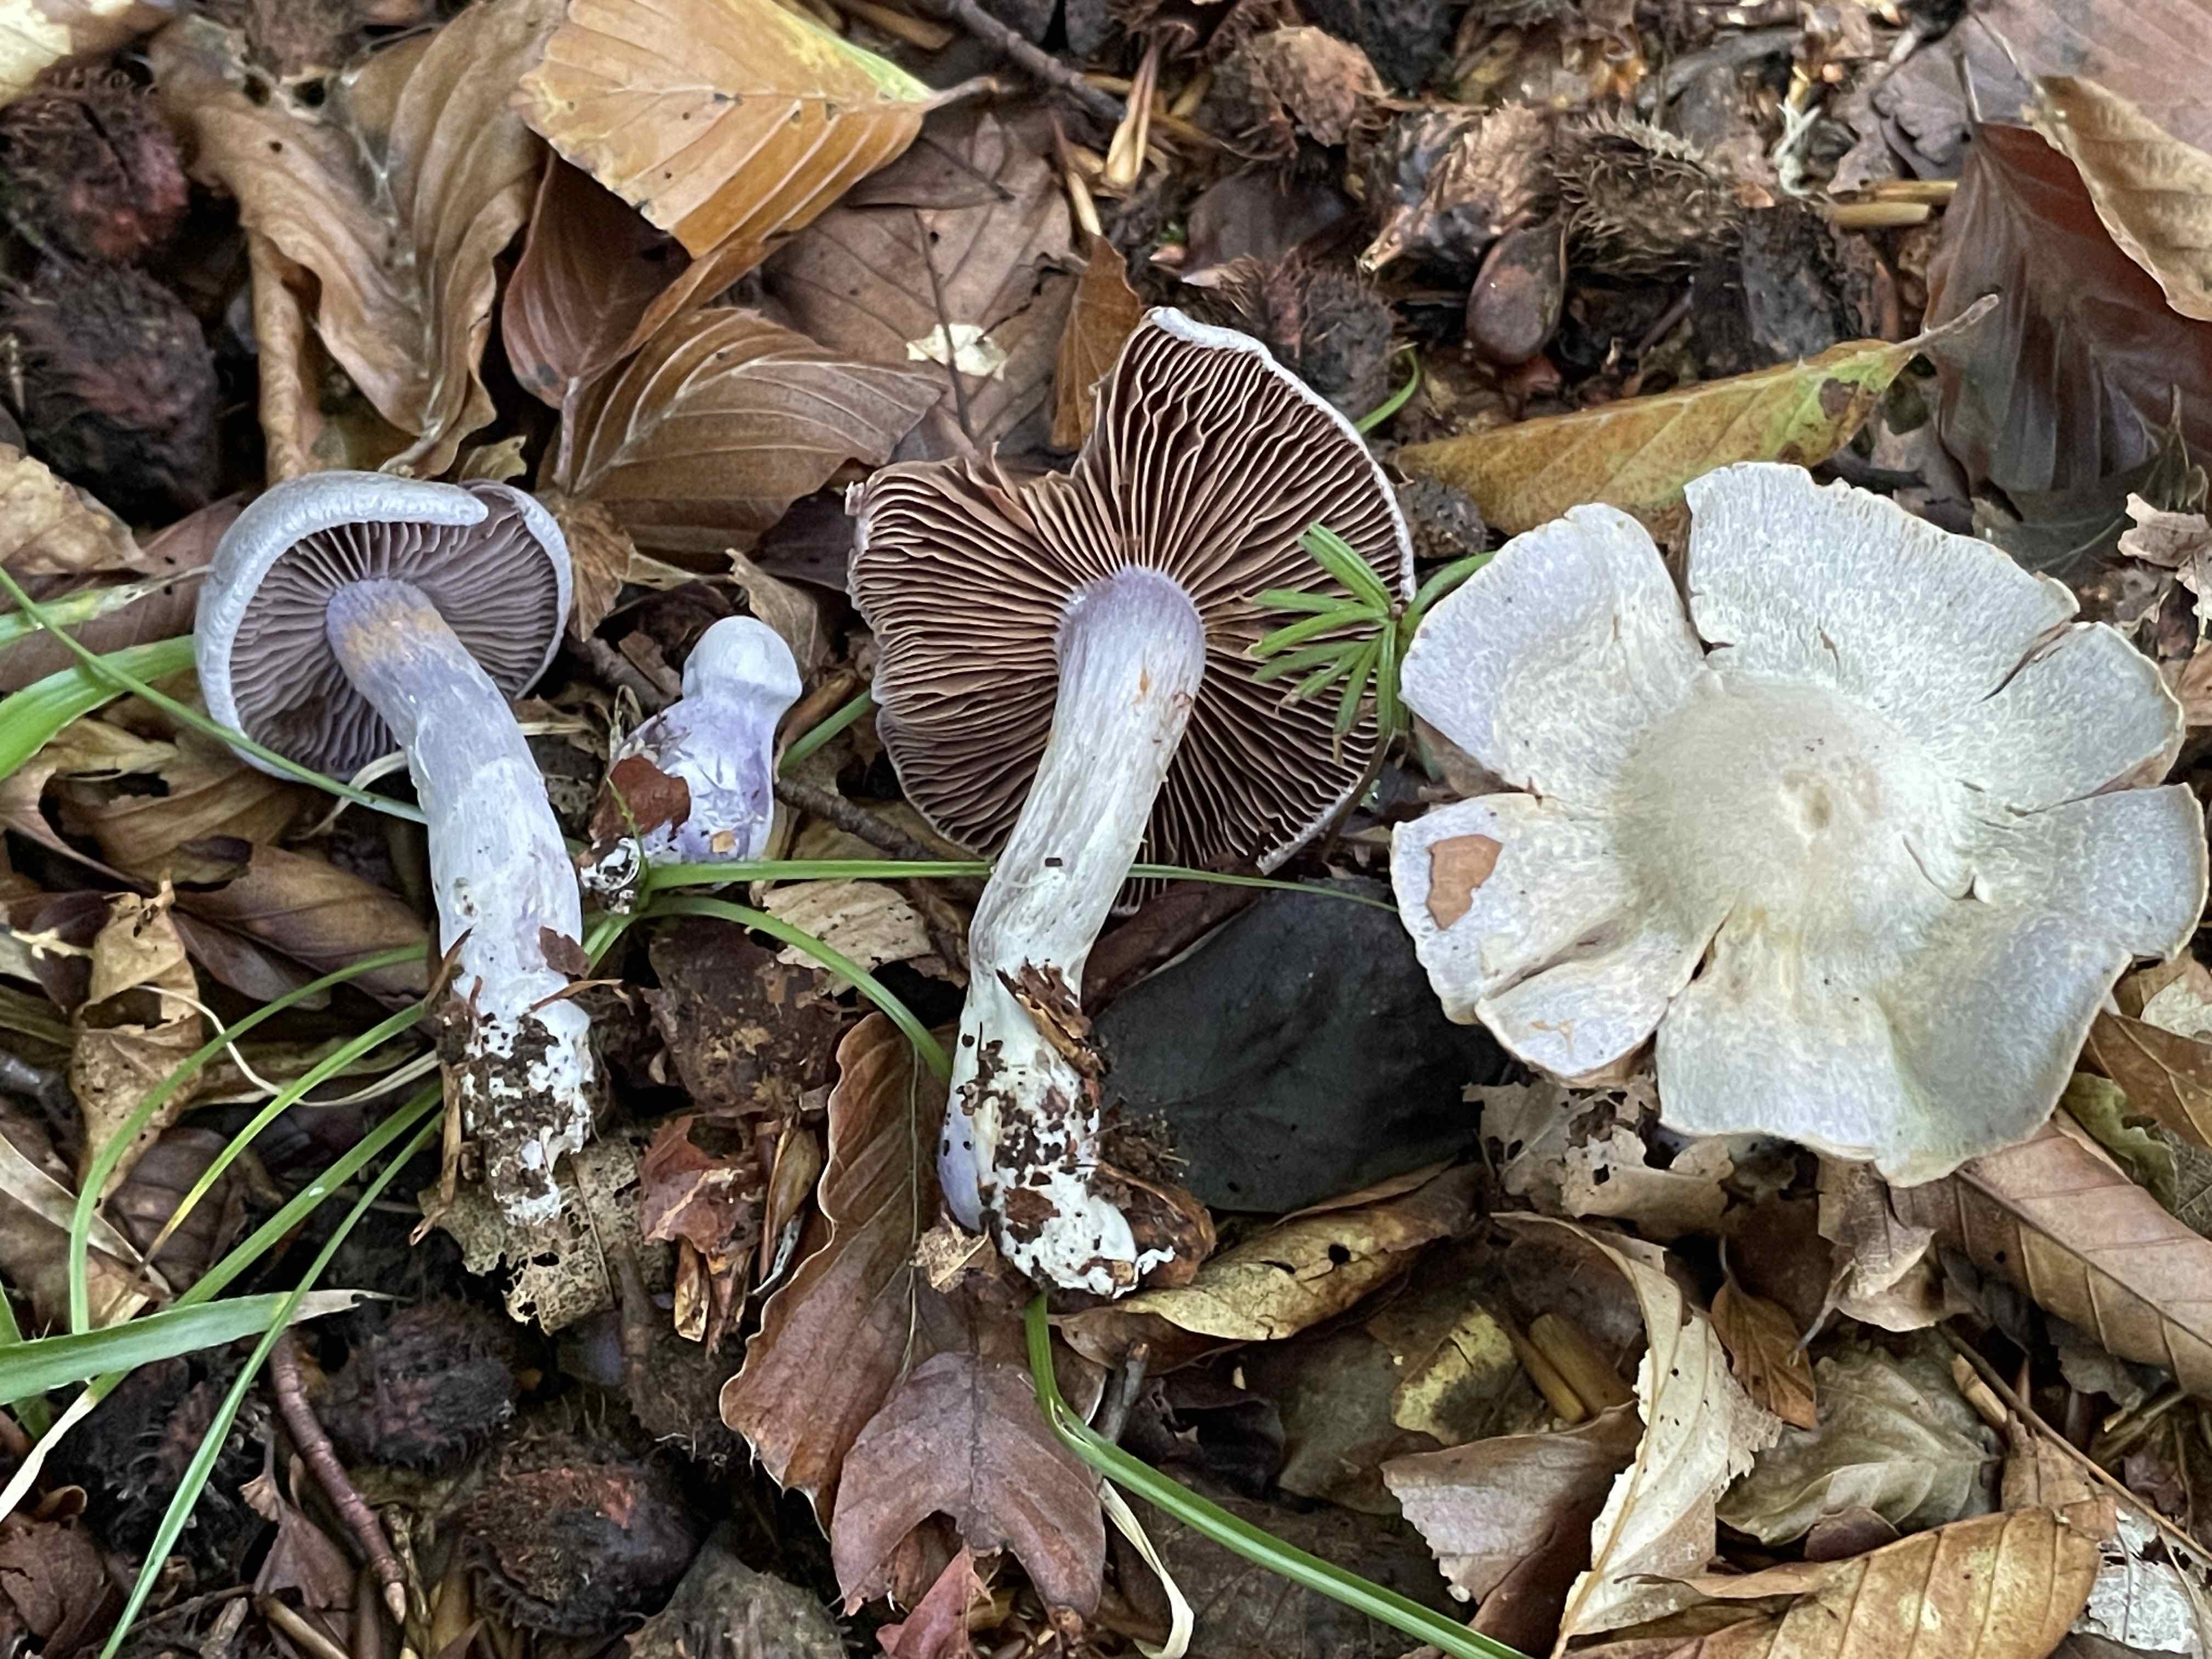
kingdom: Fungi
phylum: Basidiomycota
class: Agaricomycetes
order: Agaricales
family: Cortinariaceae
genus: Cortinarius
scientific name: Cortinarius alboviolaceus
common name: lysviolet slørhat
